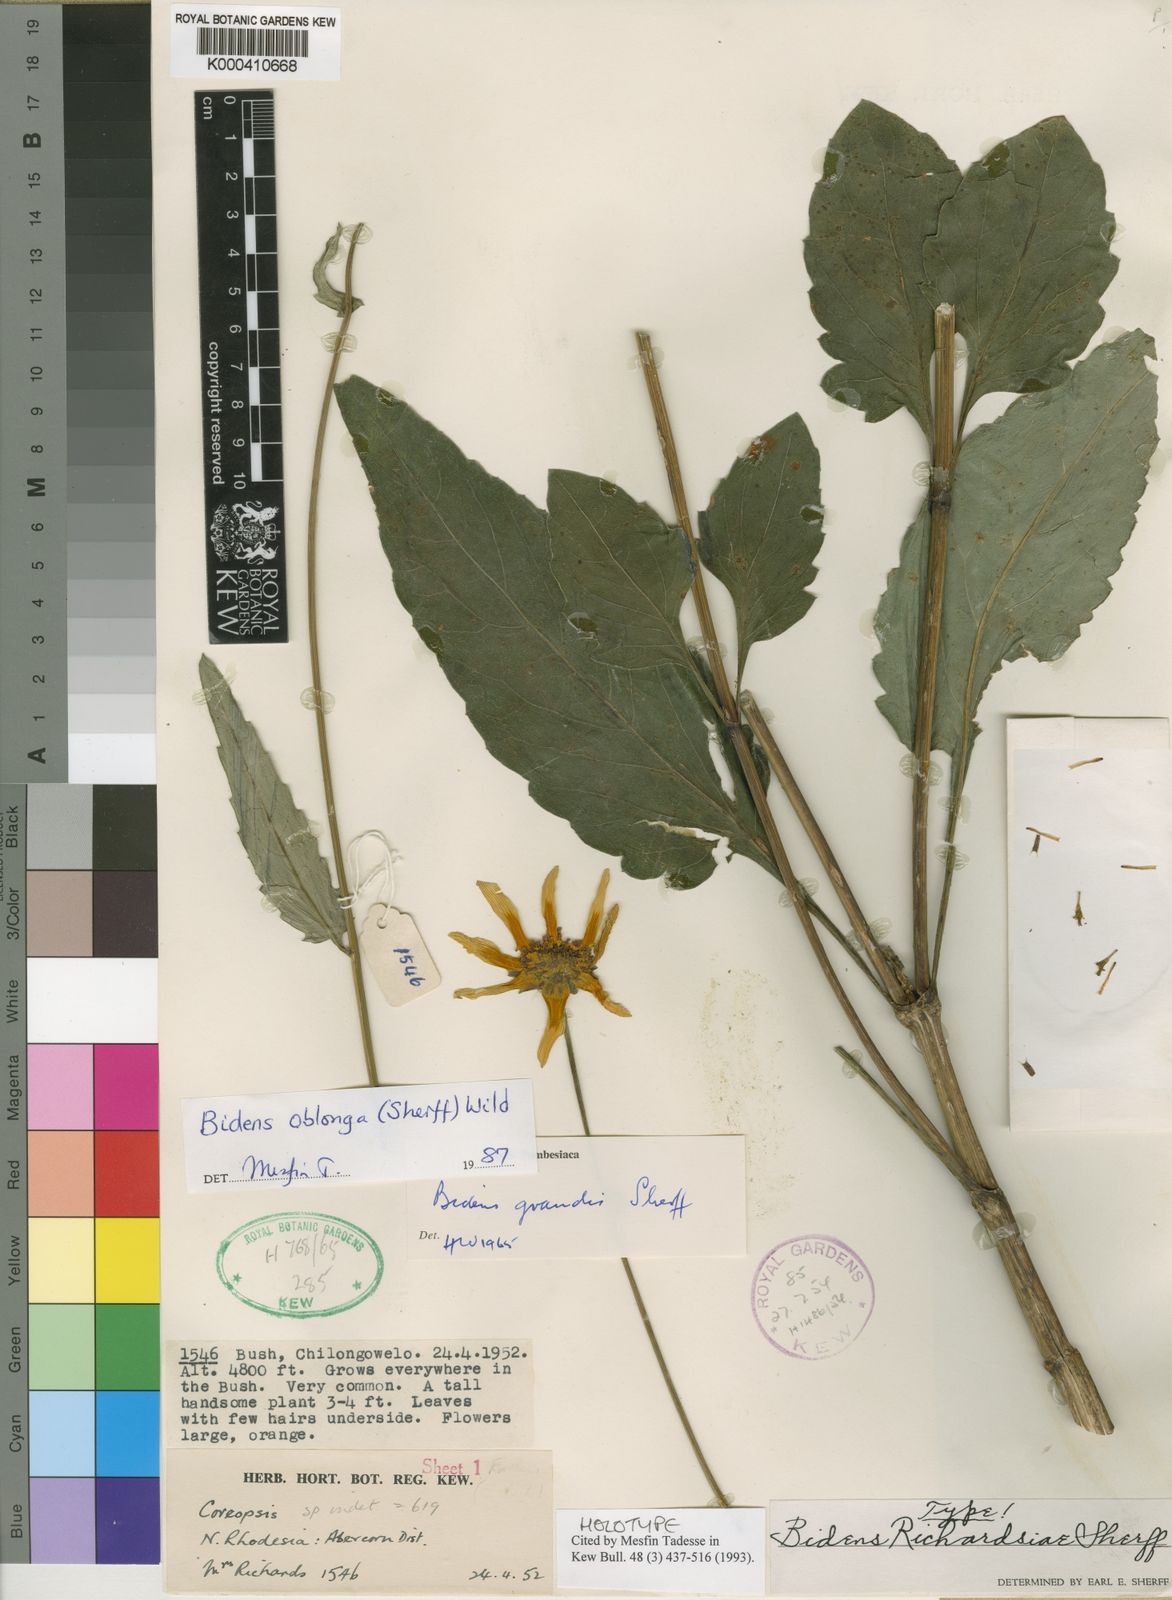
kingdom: Plantae
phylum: Tracheophyta
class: Magnoliopsida
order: Asterales
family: Asteraceae
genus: Bidens
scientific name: Bidens oblonga
